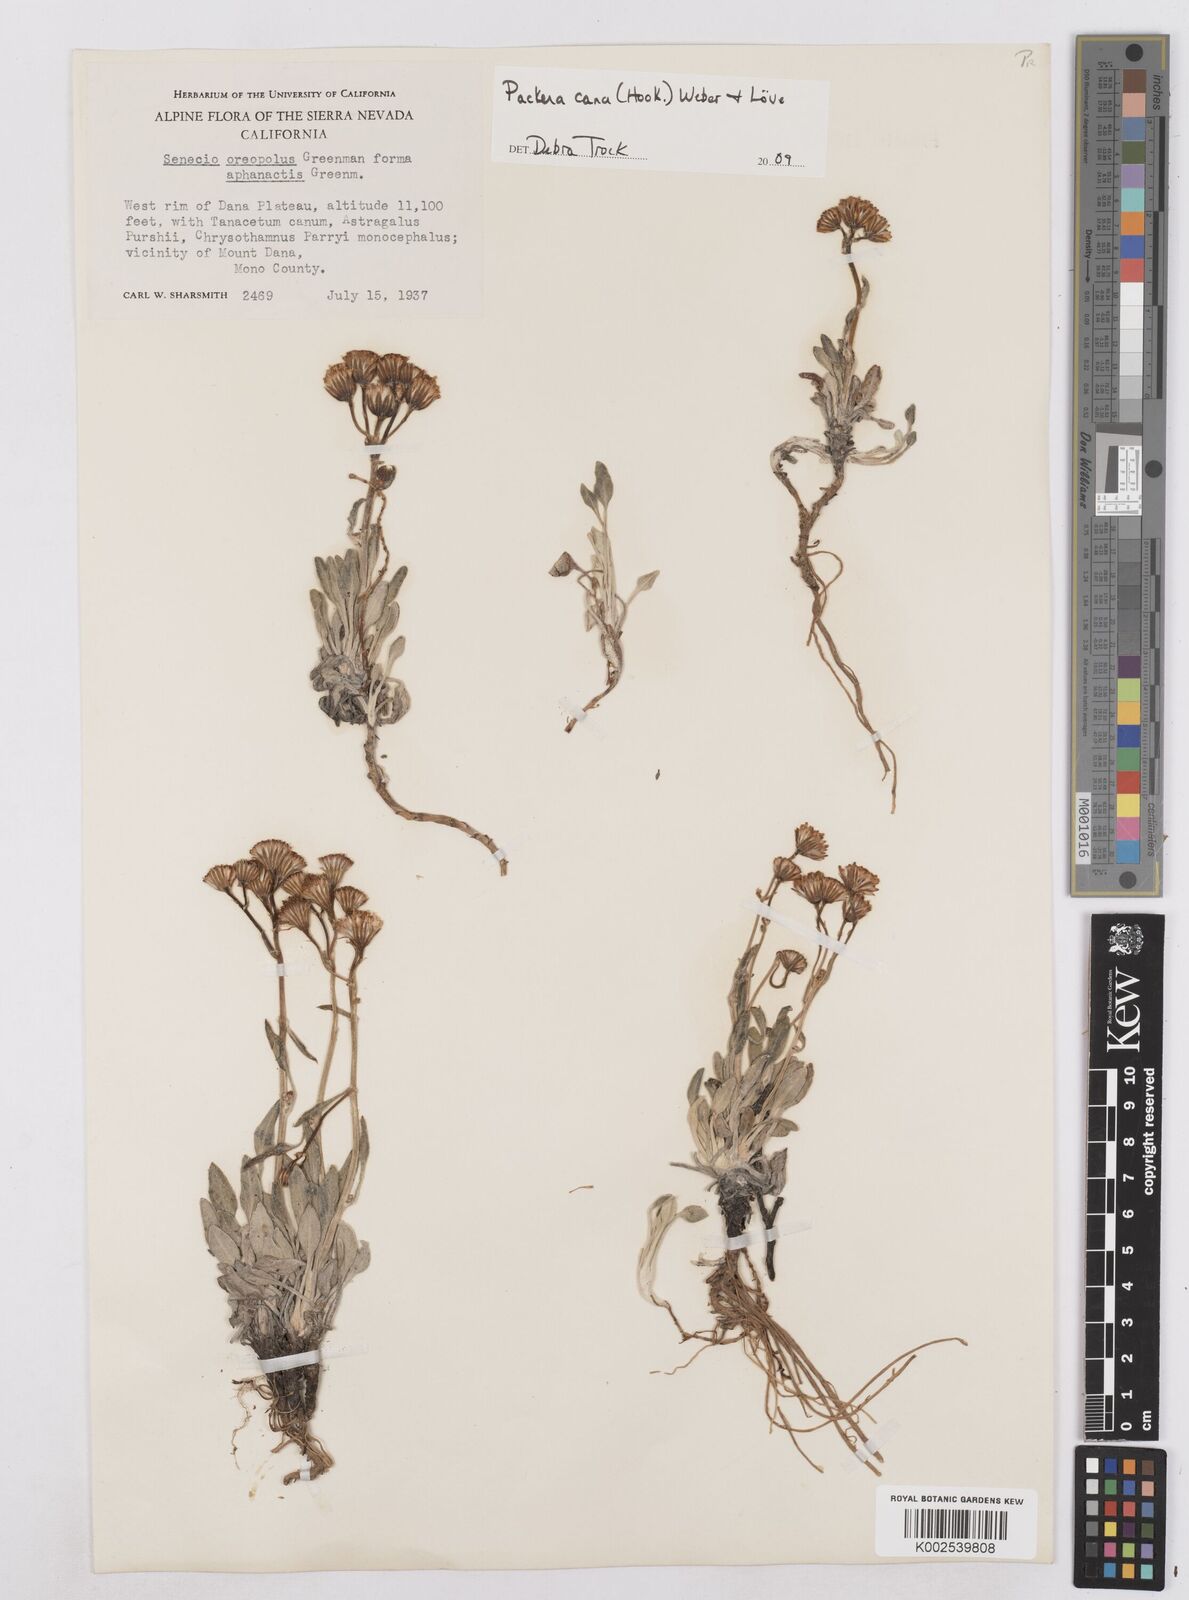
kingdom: Plantae
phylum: Tracheophyta
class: Magnoliopsida
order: Asterales
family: Asteraceae
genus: Packera
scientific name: Packera cana
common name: Woolly groundsel
